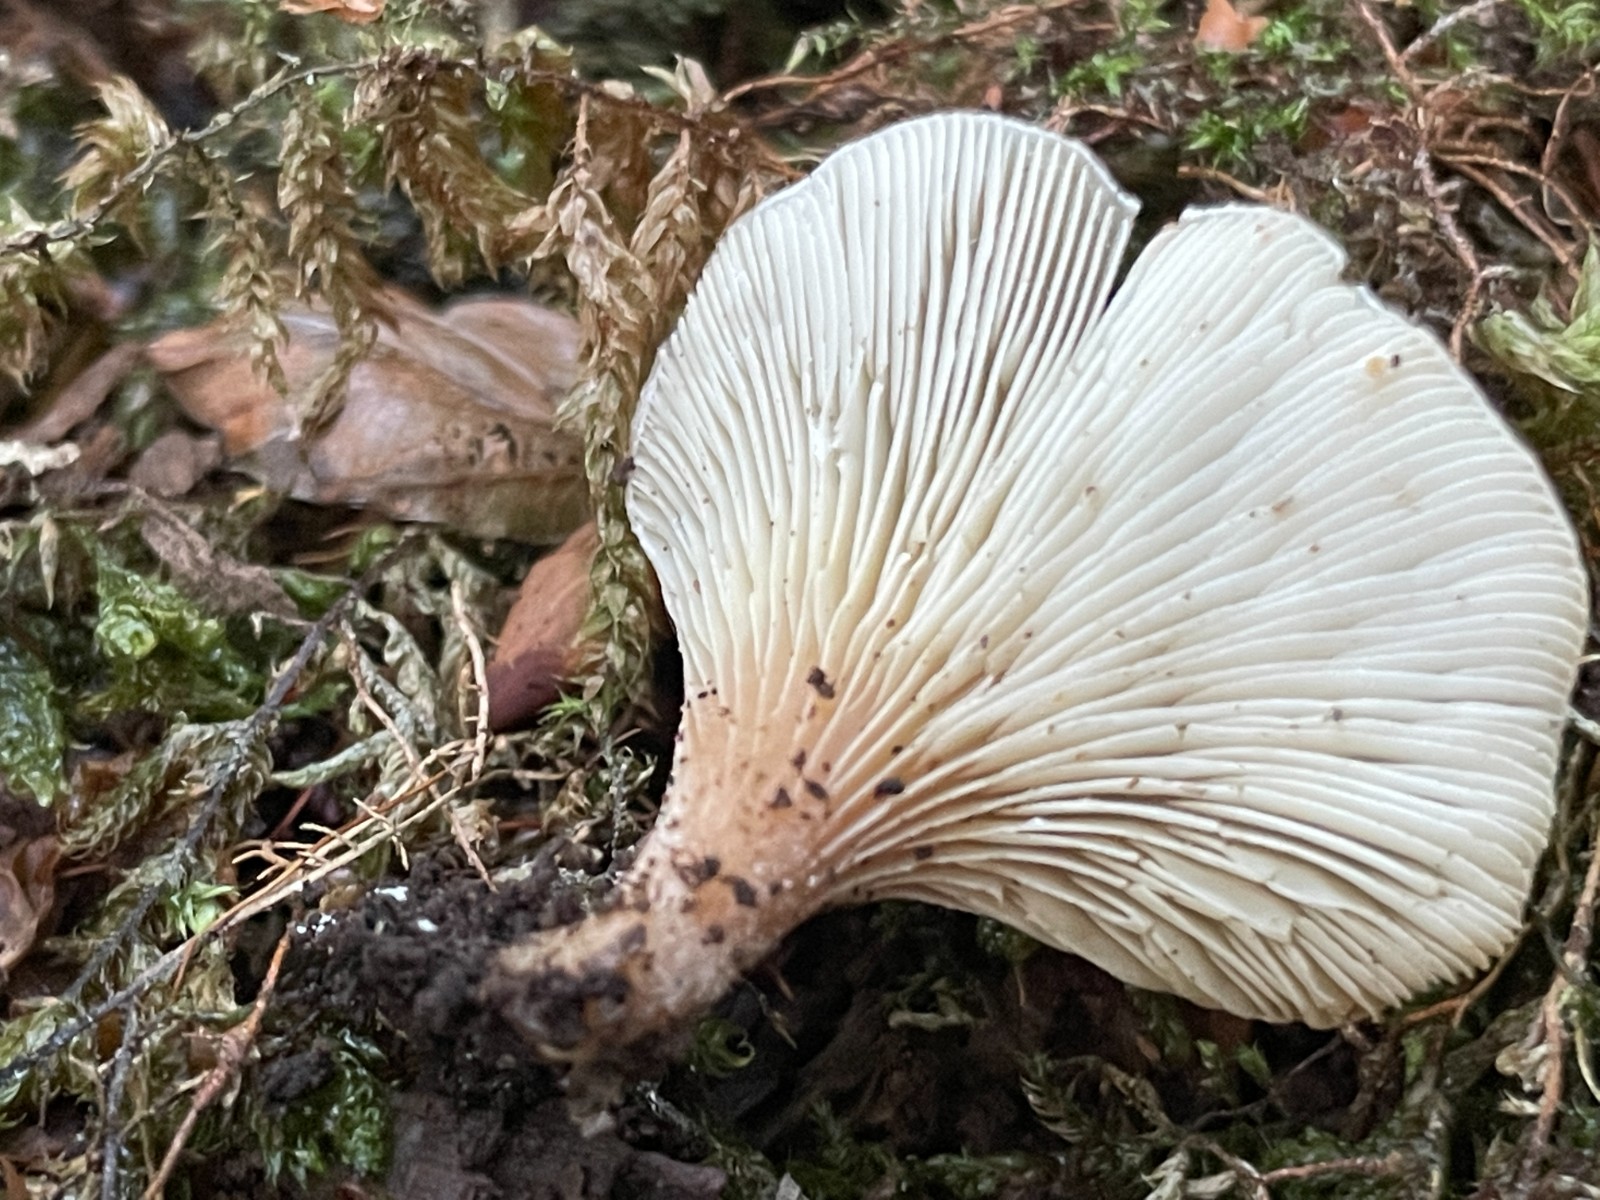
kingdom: Fungi
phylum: Basidiomycota
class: Agaricomycetes
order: Agaricales
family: Pleurotaceae
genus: Hohenbuehelia
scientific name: Hohenbuehelia auriscalpium
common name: spatel-filthat
